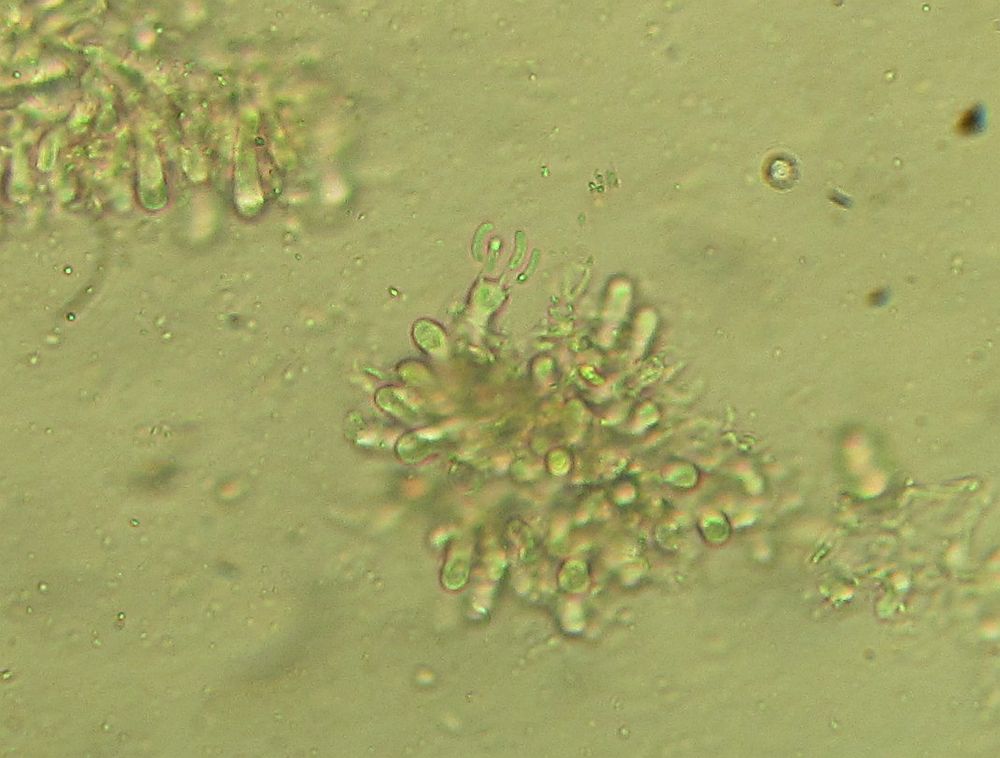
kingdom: Fungi
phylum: Basidiomycota
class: Agaricomycetes
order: Polyporales
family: Irpicaceae
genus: Ceriporia
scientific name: Ceriporia purpurea
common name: purpur-voksporesvamp
